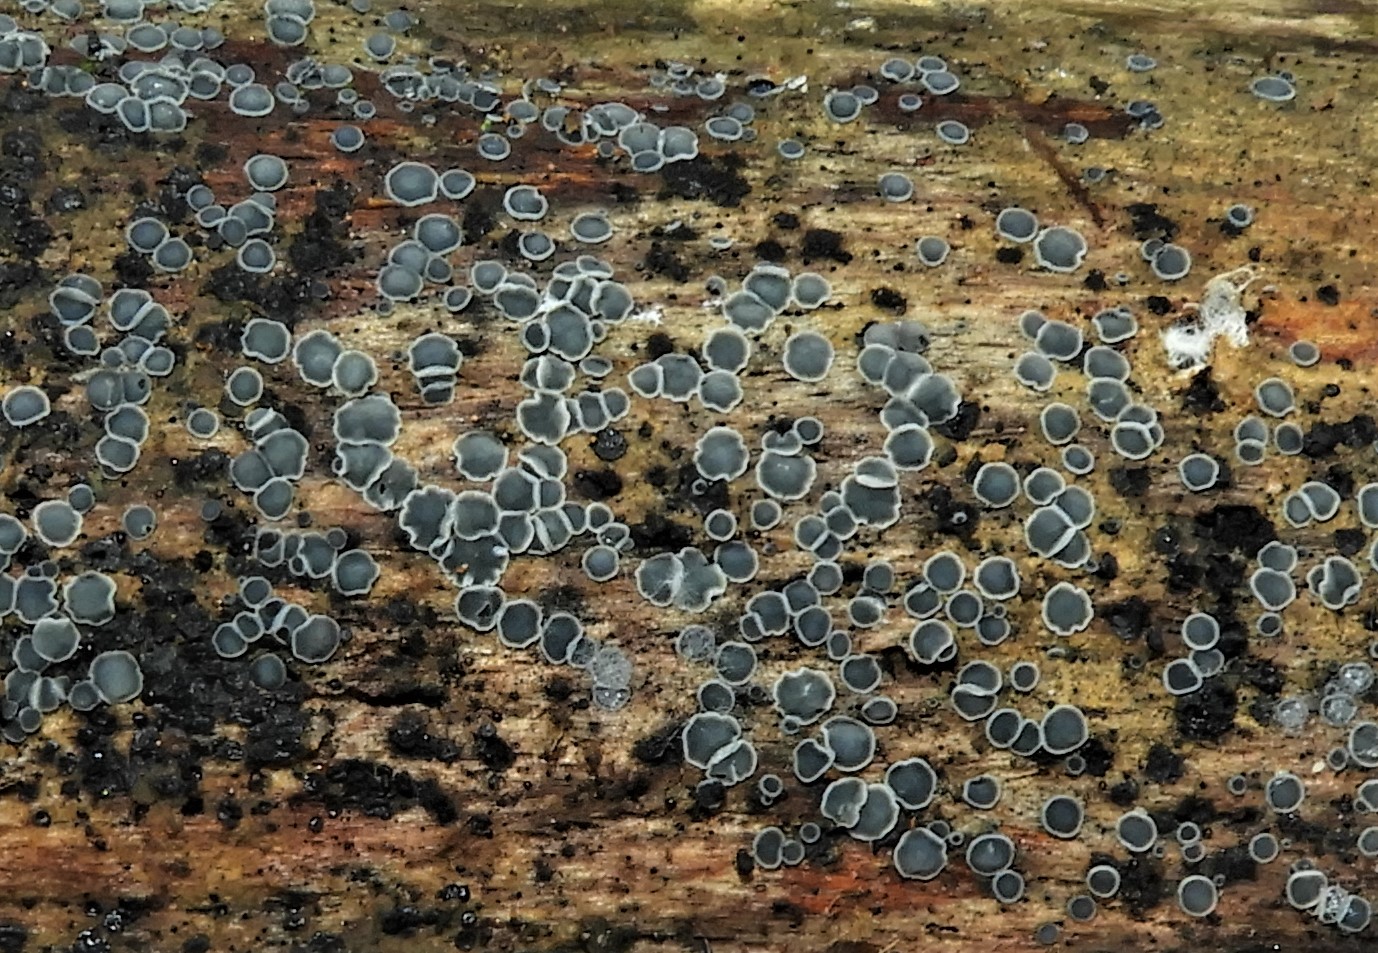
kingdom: Fungi
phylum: Ascomycota
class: Leotiomycetes
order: Helotiales
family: Mollisiaceae
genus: Mollisia
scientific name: Mollisia cinerea
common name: almindelig gråskive
